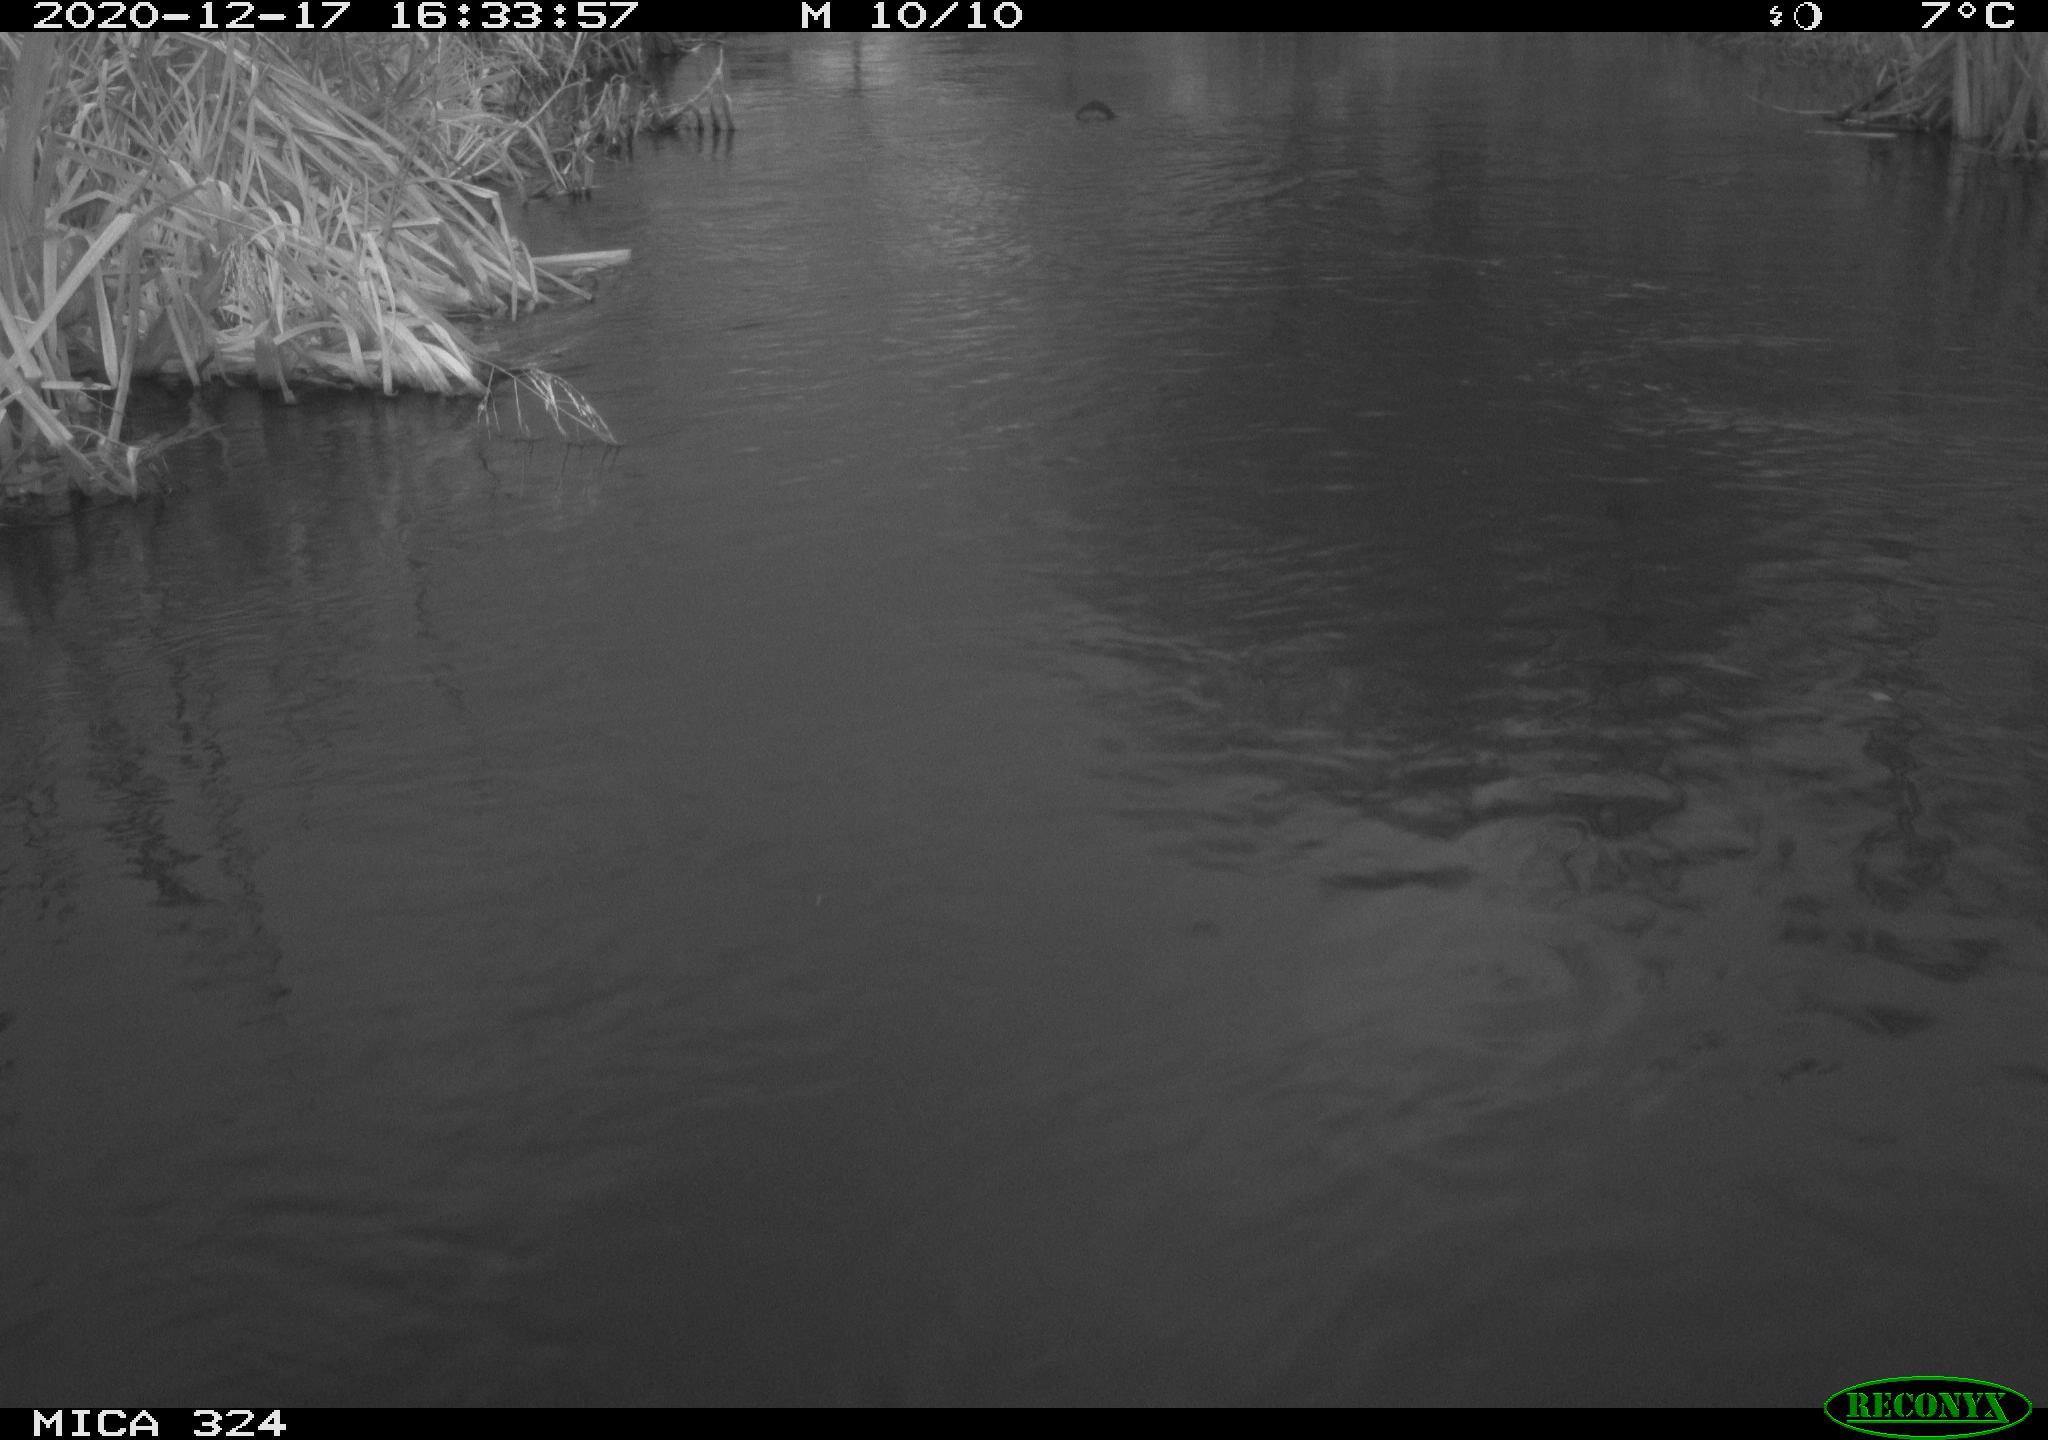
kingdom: Animalia
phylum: Chordata
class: Mammalia
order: Rodentia
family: Cricetidae
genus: Ondatra
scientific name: Ondatra zibethicus
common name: Muskrat
